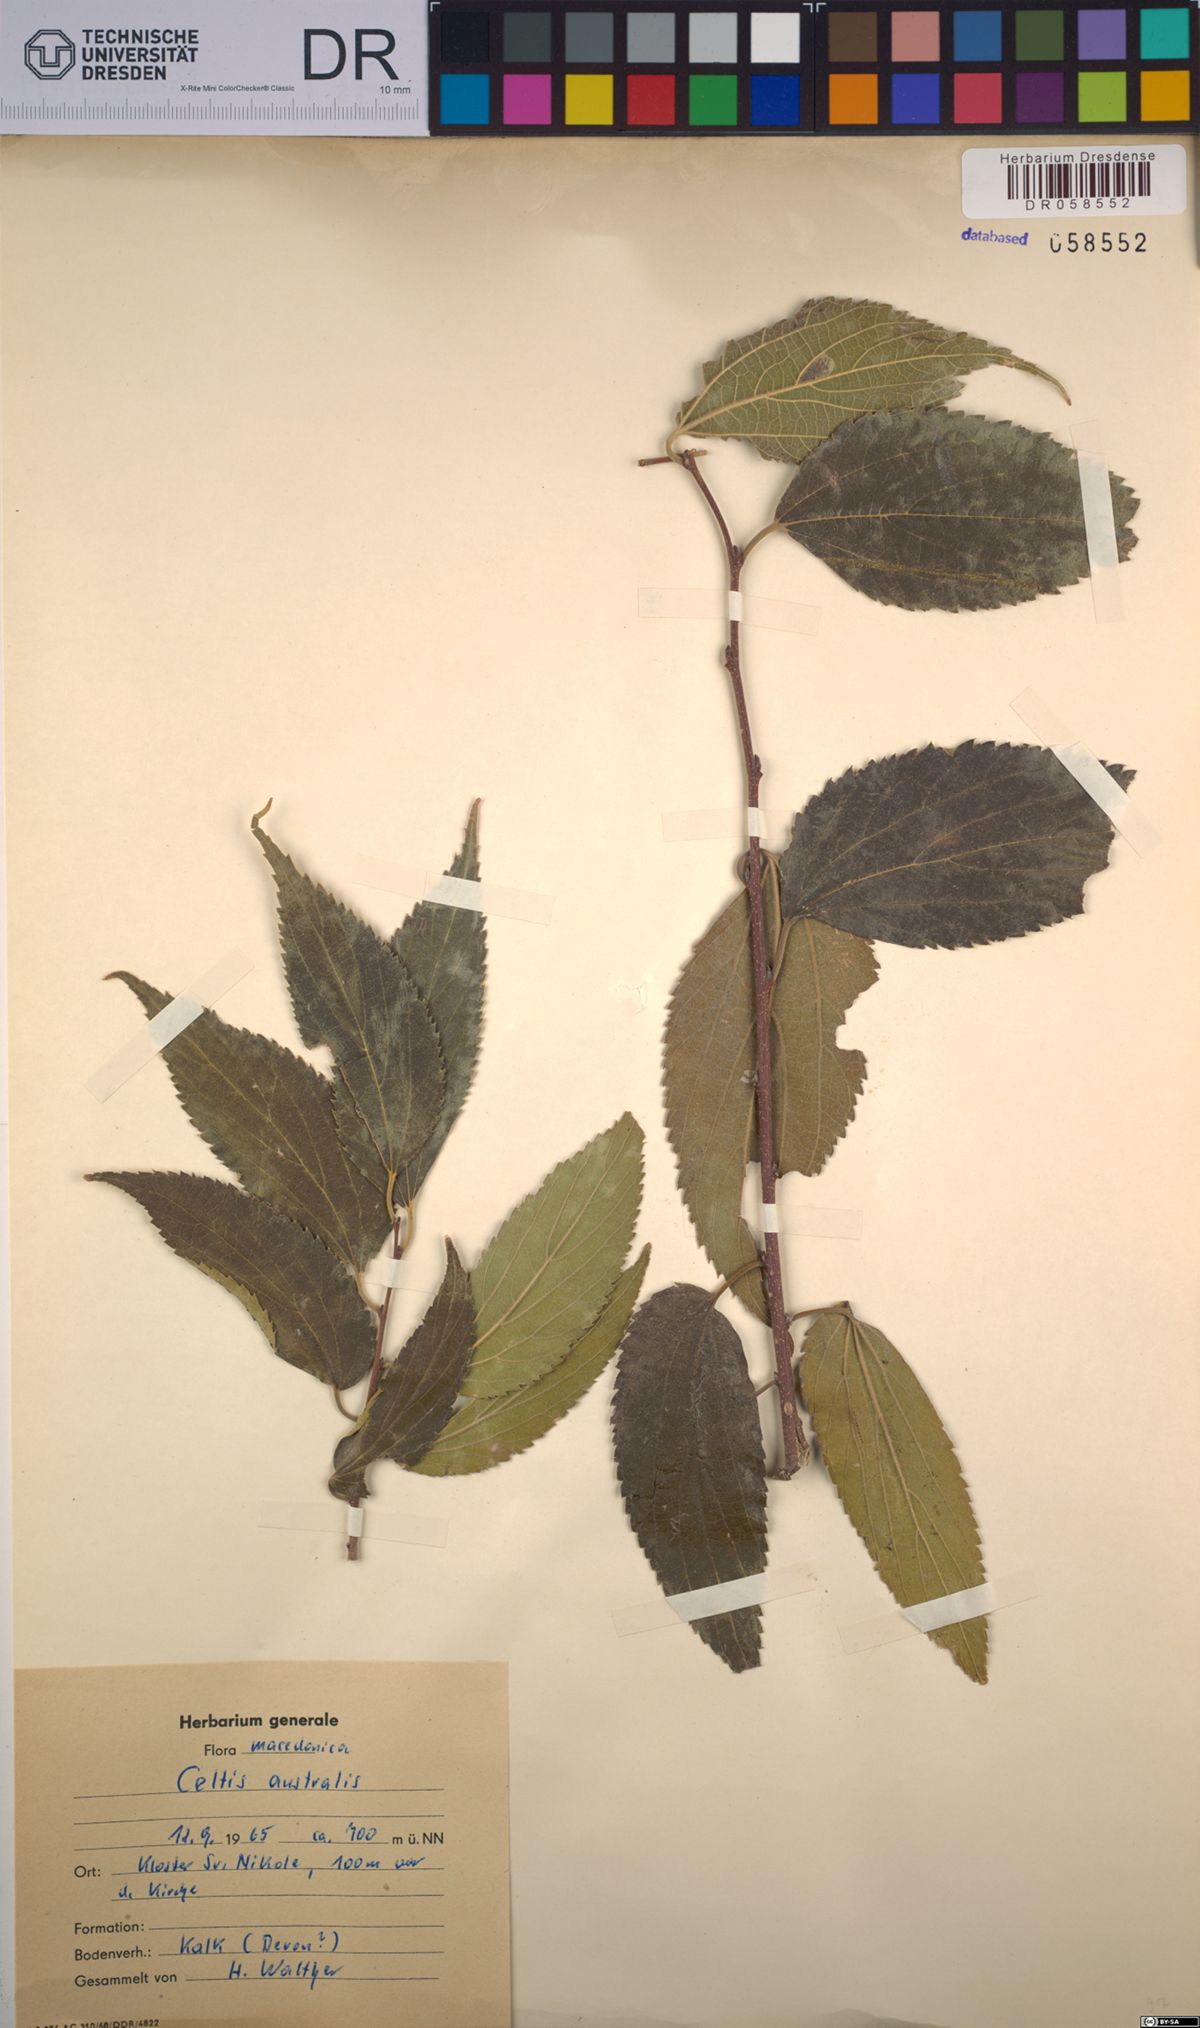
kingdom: Plantae
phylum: Tracheophyta
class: Magnoliopsida
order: Rosales
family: Cannabaceae
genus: Celtis
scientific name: Celtis australis
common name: European hackberry
